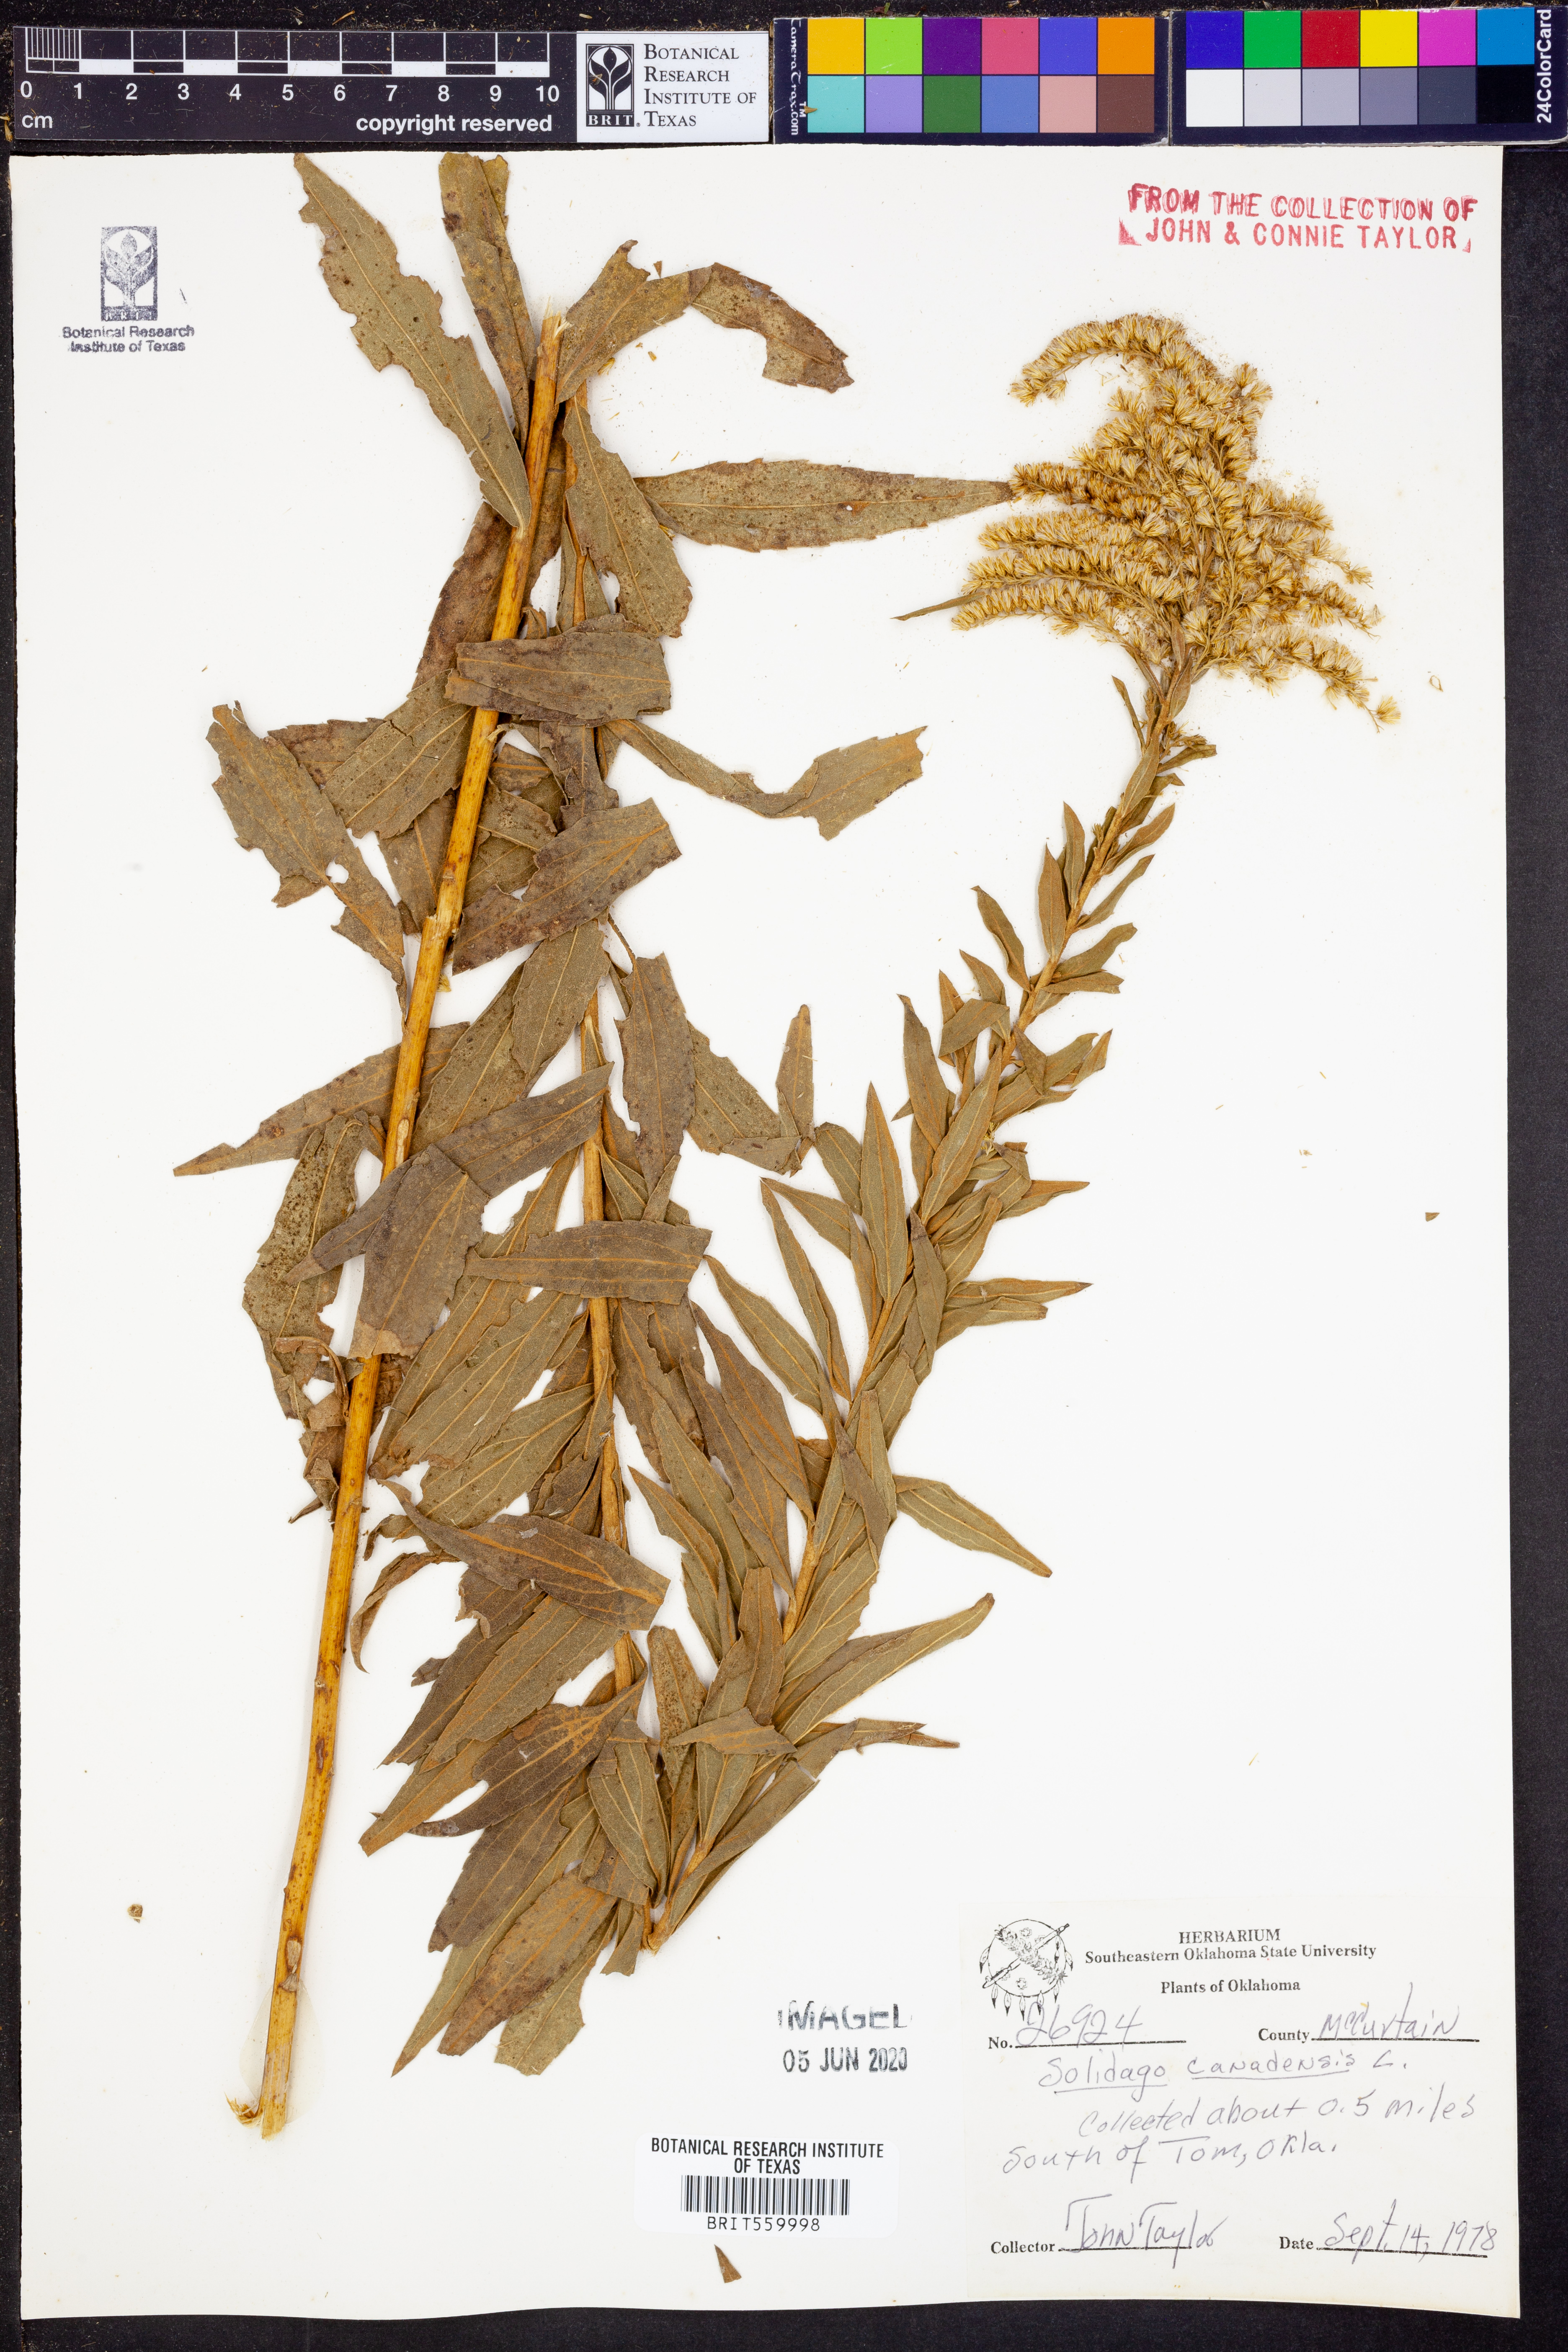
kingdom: Plantae
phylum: Tracheophyta
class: Magnoliopsida
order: Asterales
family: Asteraceae
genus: Solidago
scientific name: Solidago canadensis
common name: Canada goldenrod
